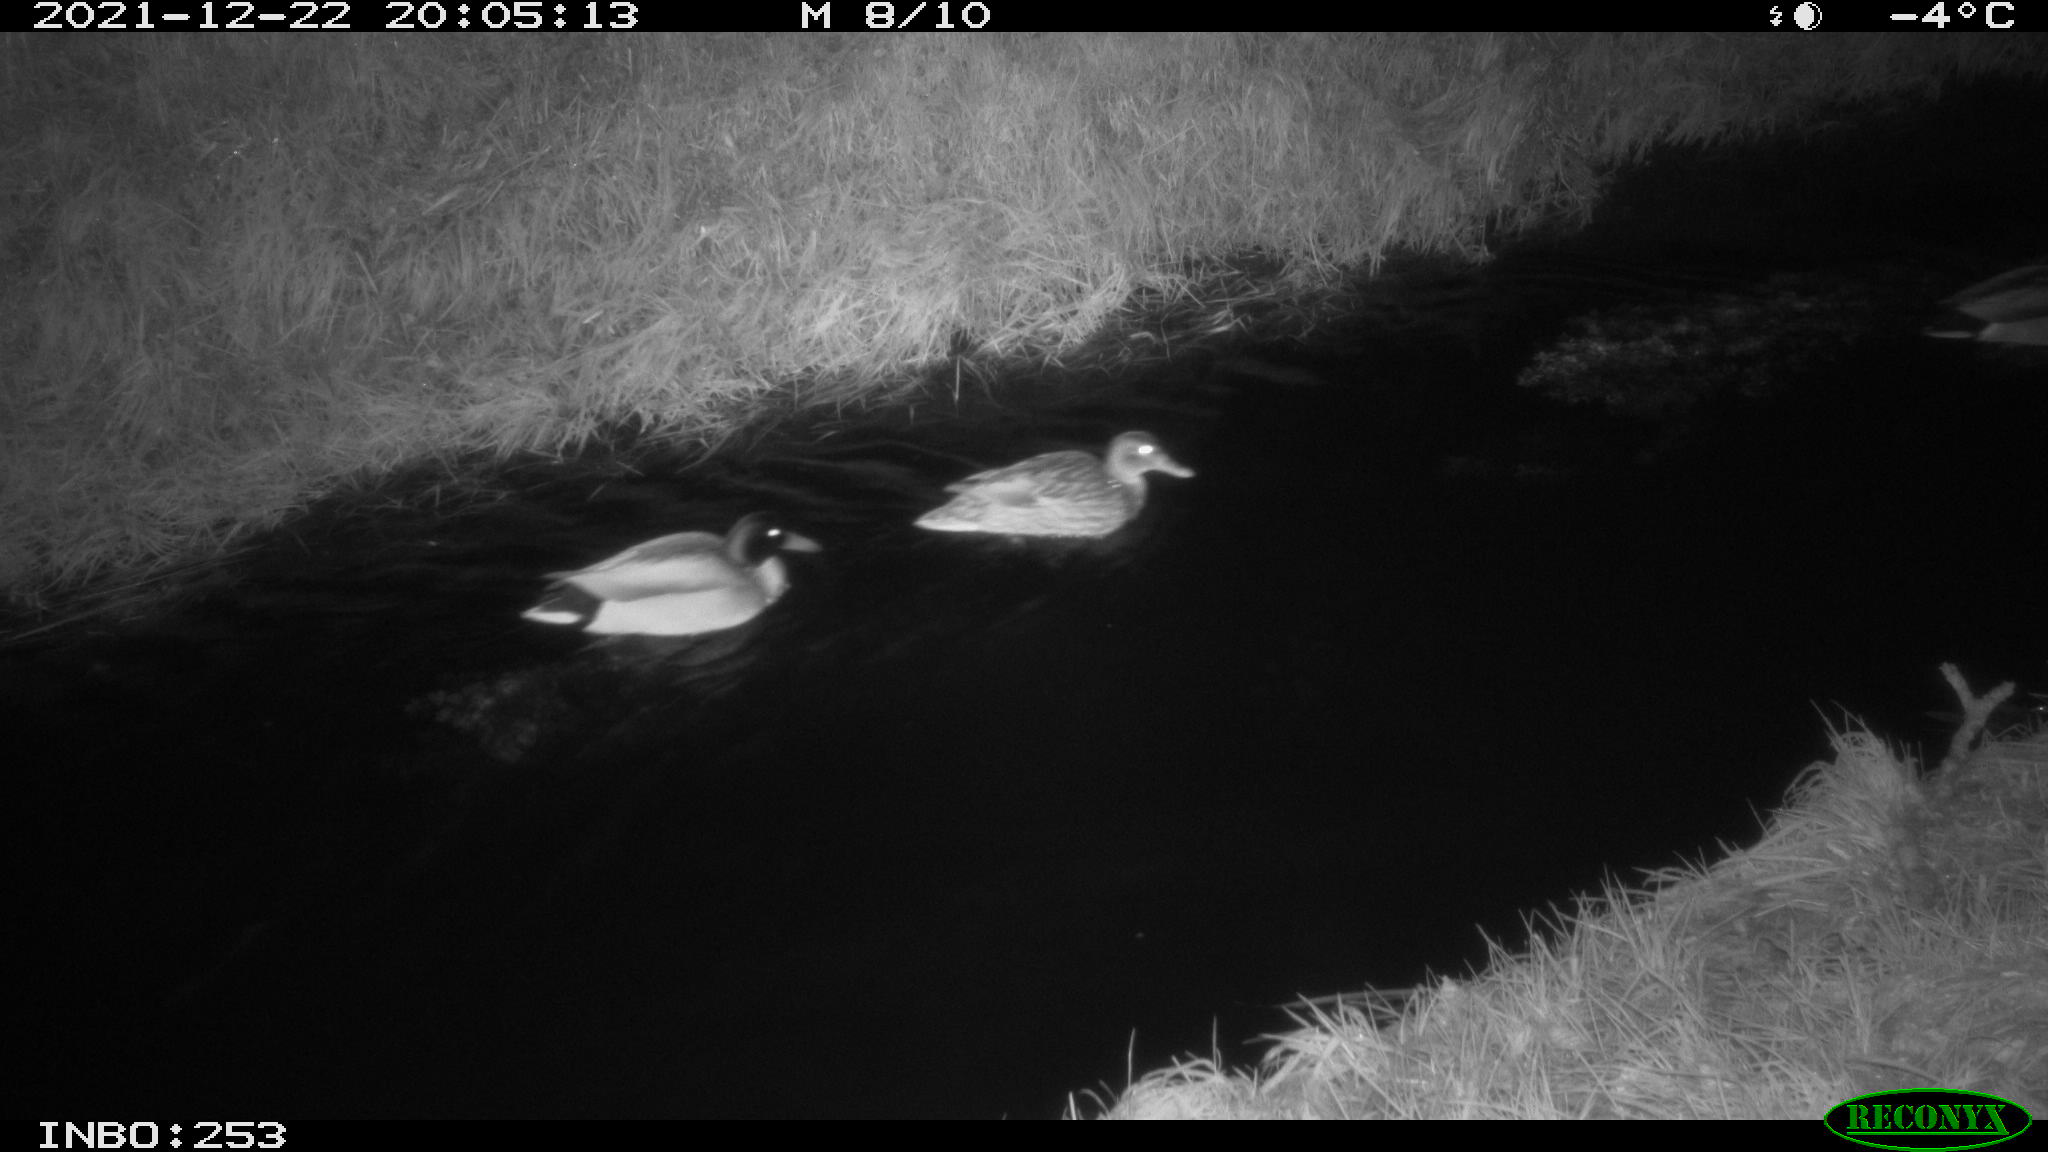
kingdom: Animalia
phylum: Chordata
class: Aves
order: Anseriformes
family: Anatidae
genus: Anas
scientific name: Anas
